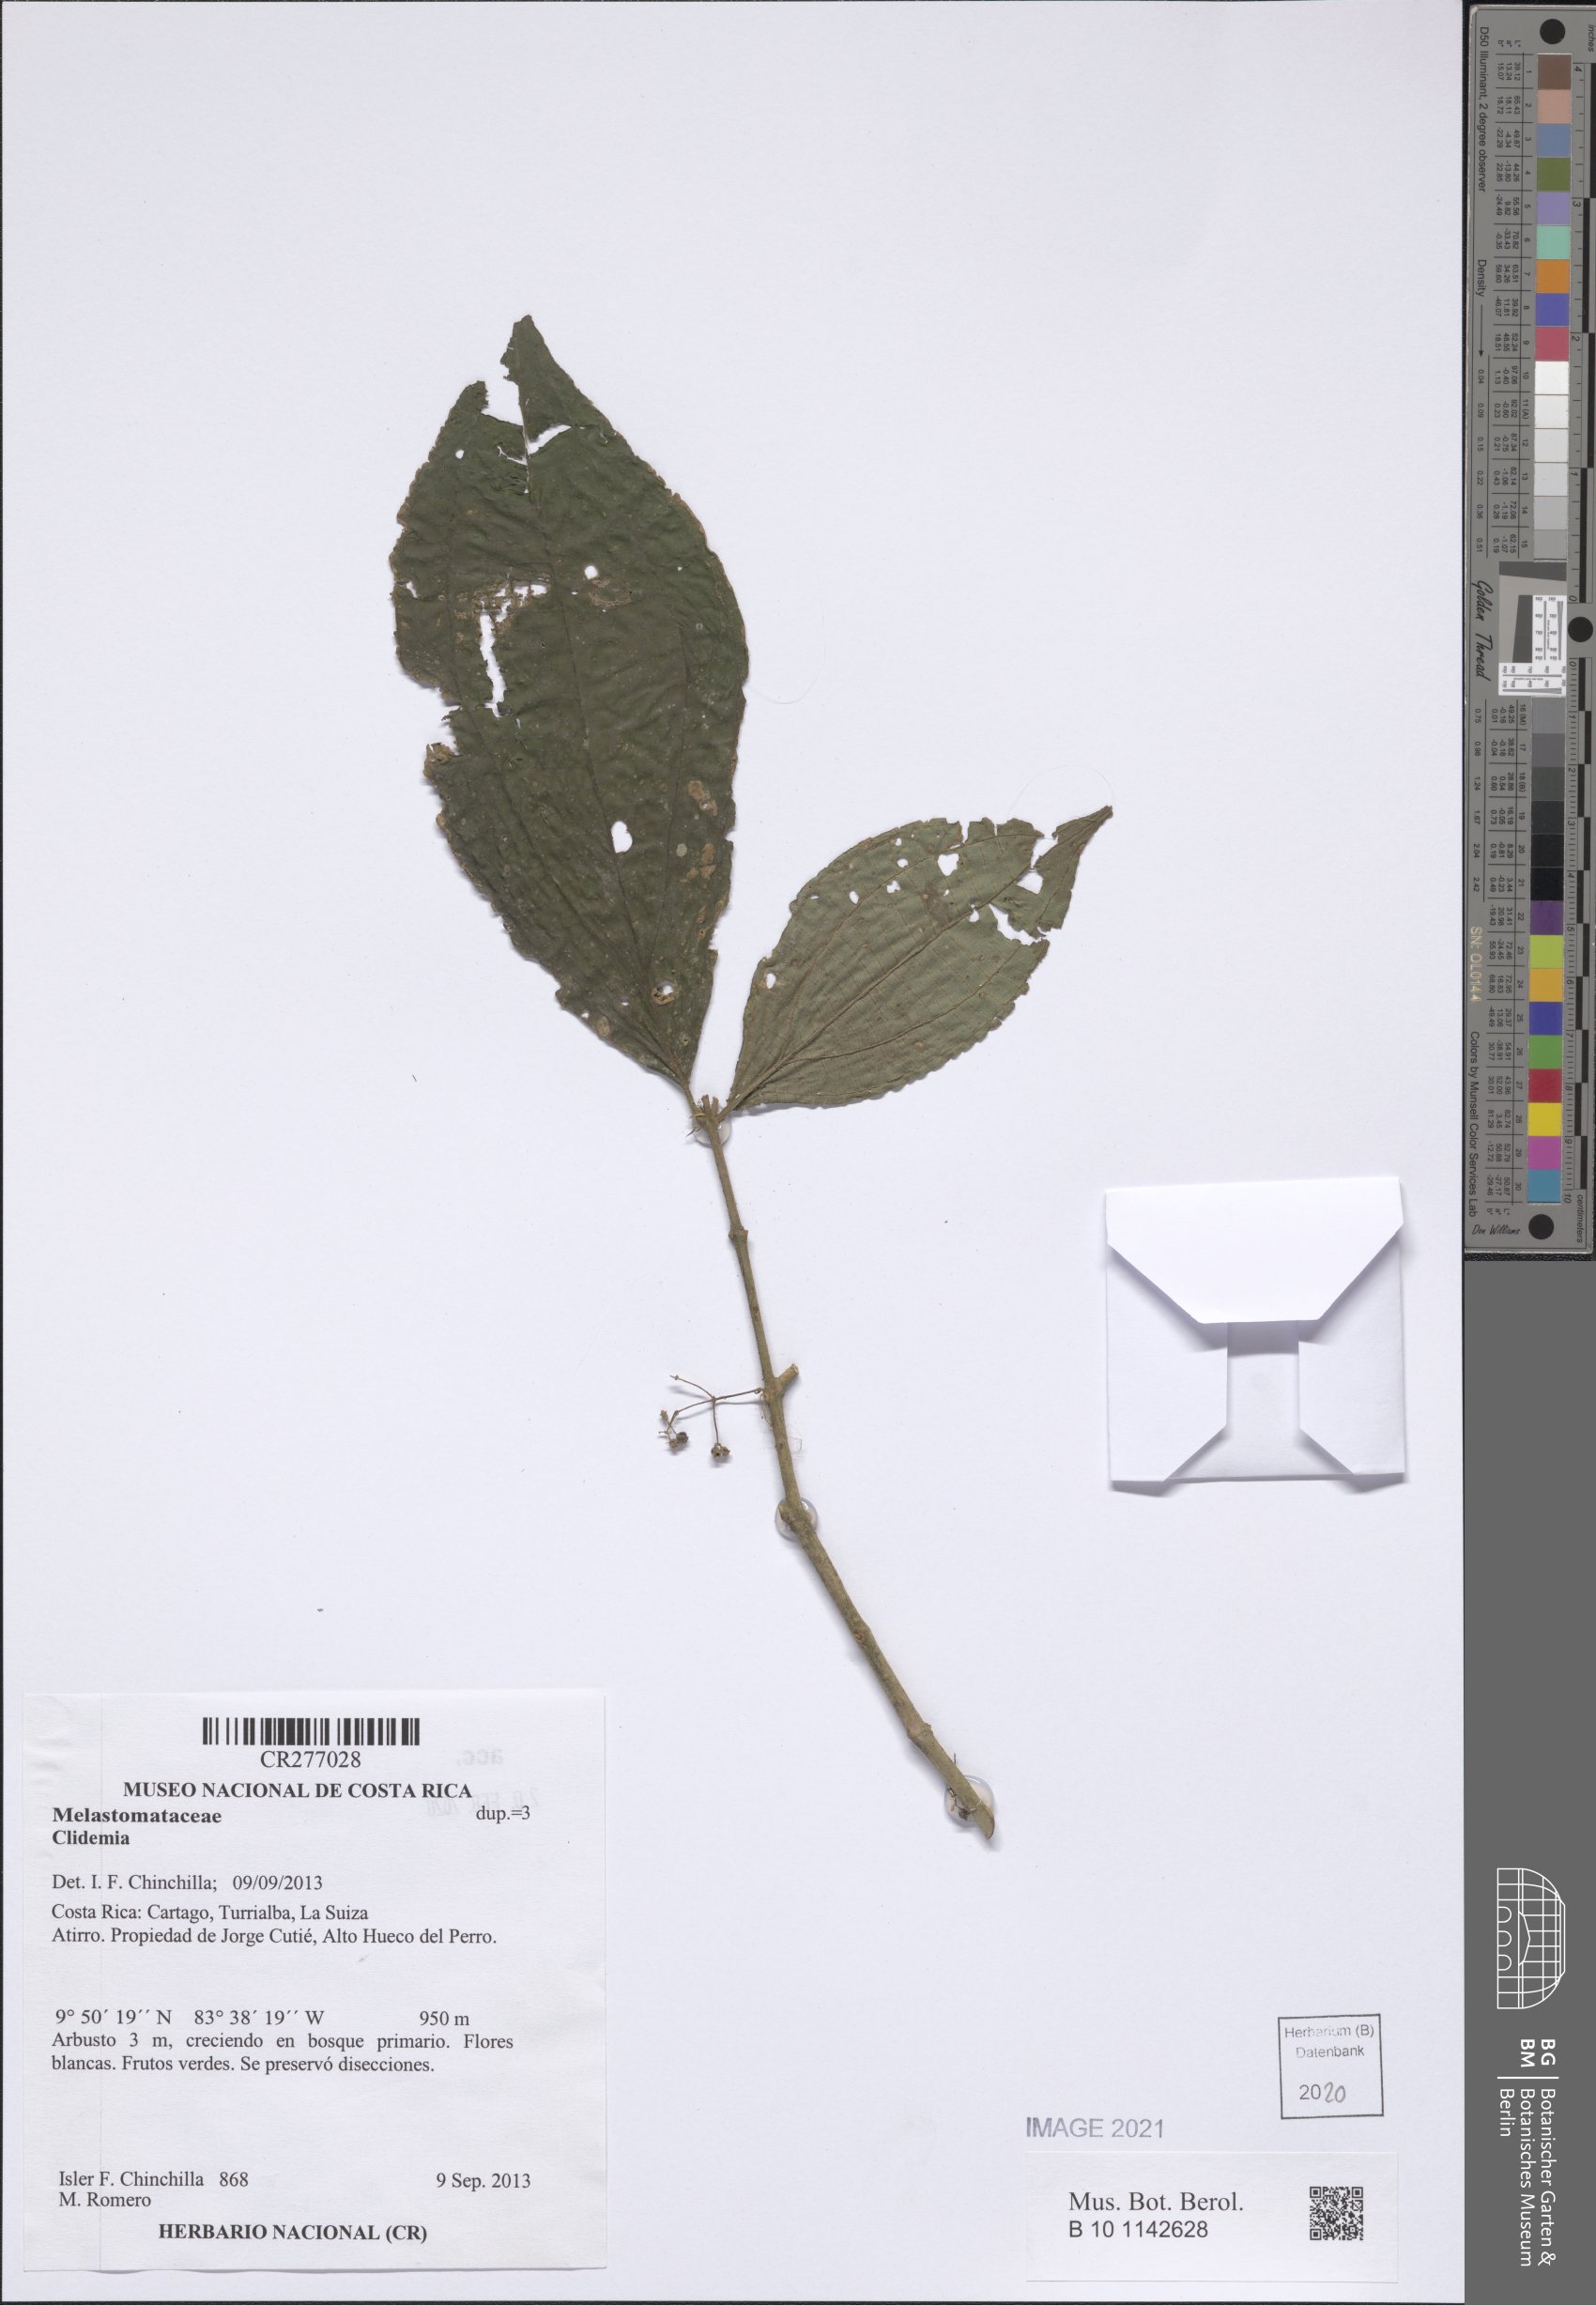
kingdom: Plantae
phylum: Tracheophyta
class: Magnoliopsida
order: Myrtales
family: Melastomataceae
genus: Miconia
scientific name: Miconia
